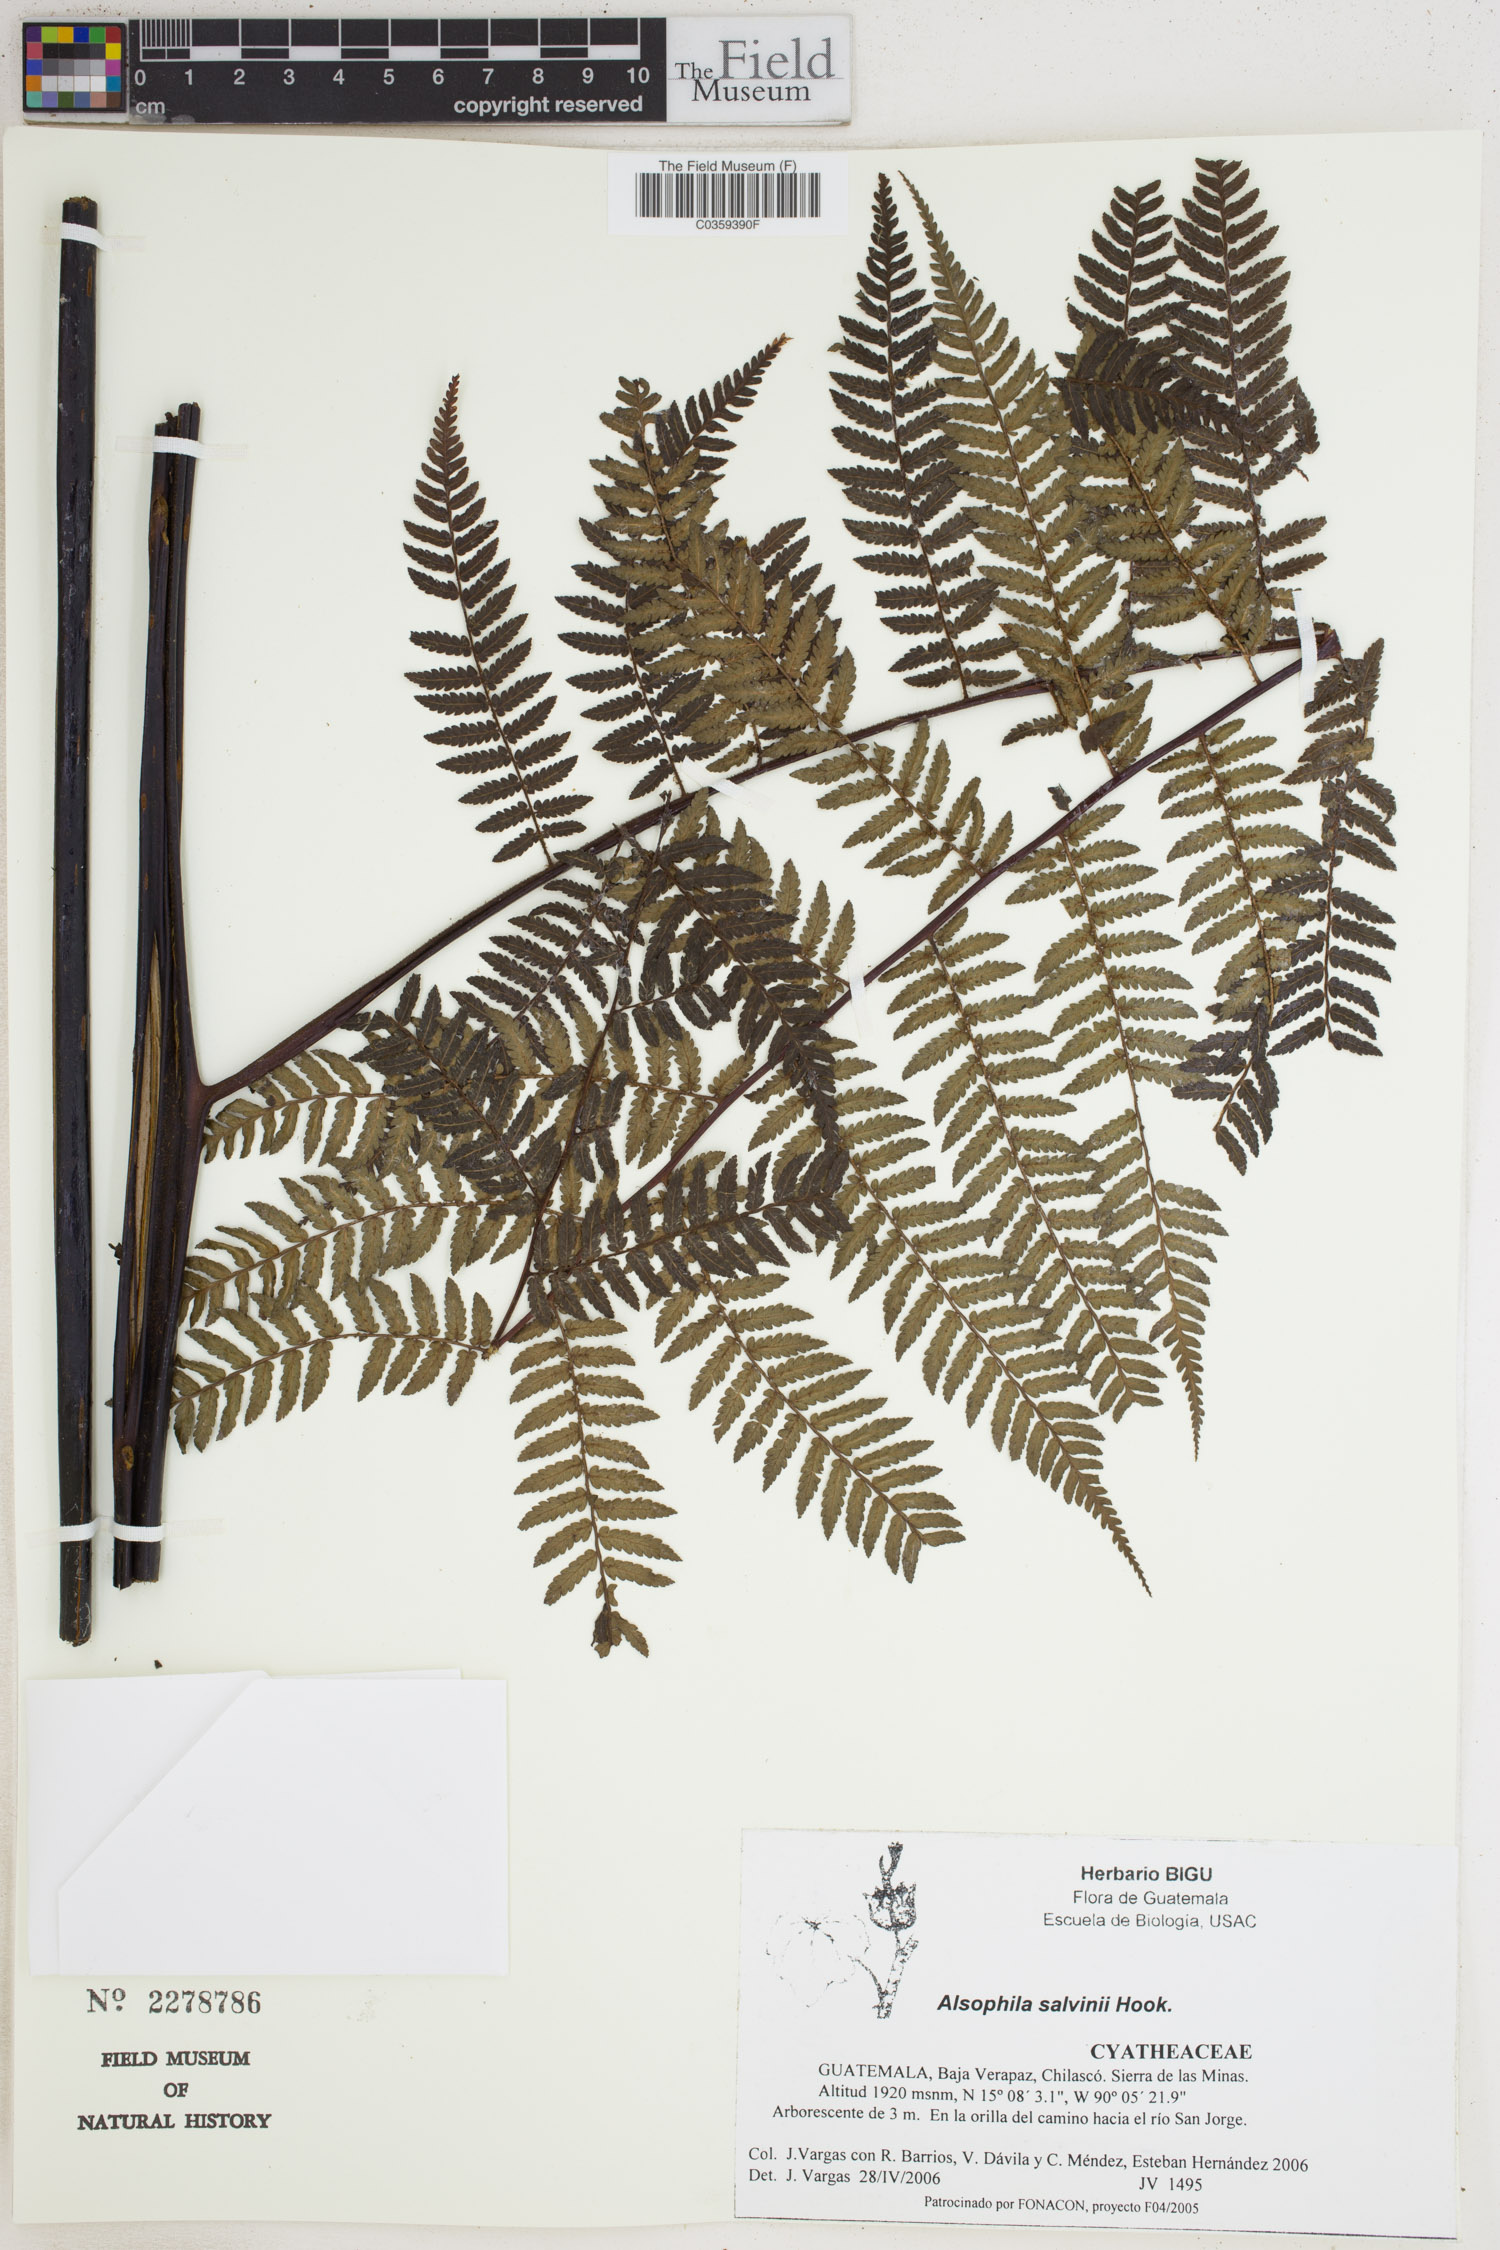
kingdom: Plantae
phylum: Tracheophyta
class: Polypodiopsida
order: Cyatheales
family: Cyatheaceae
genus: Gymnosphaera
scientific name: Gymnosphaera salvinii
